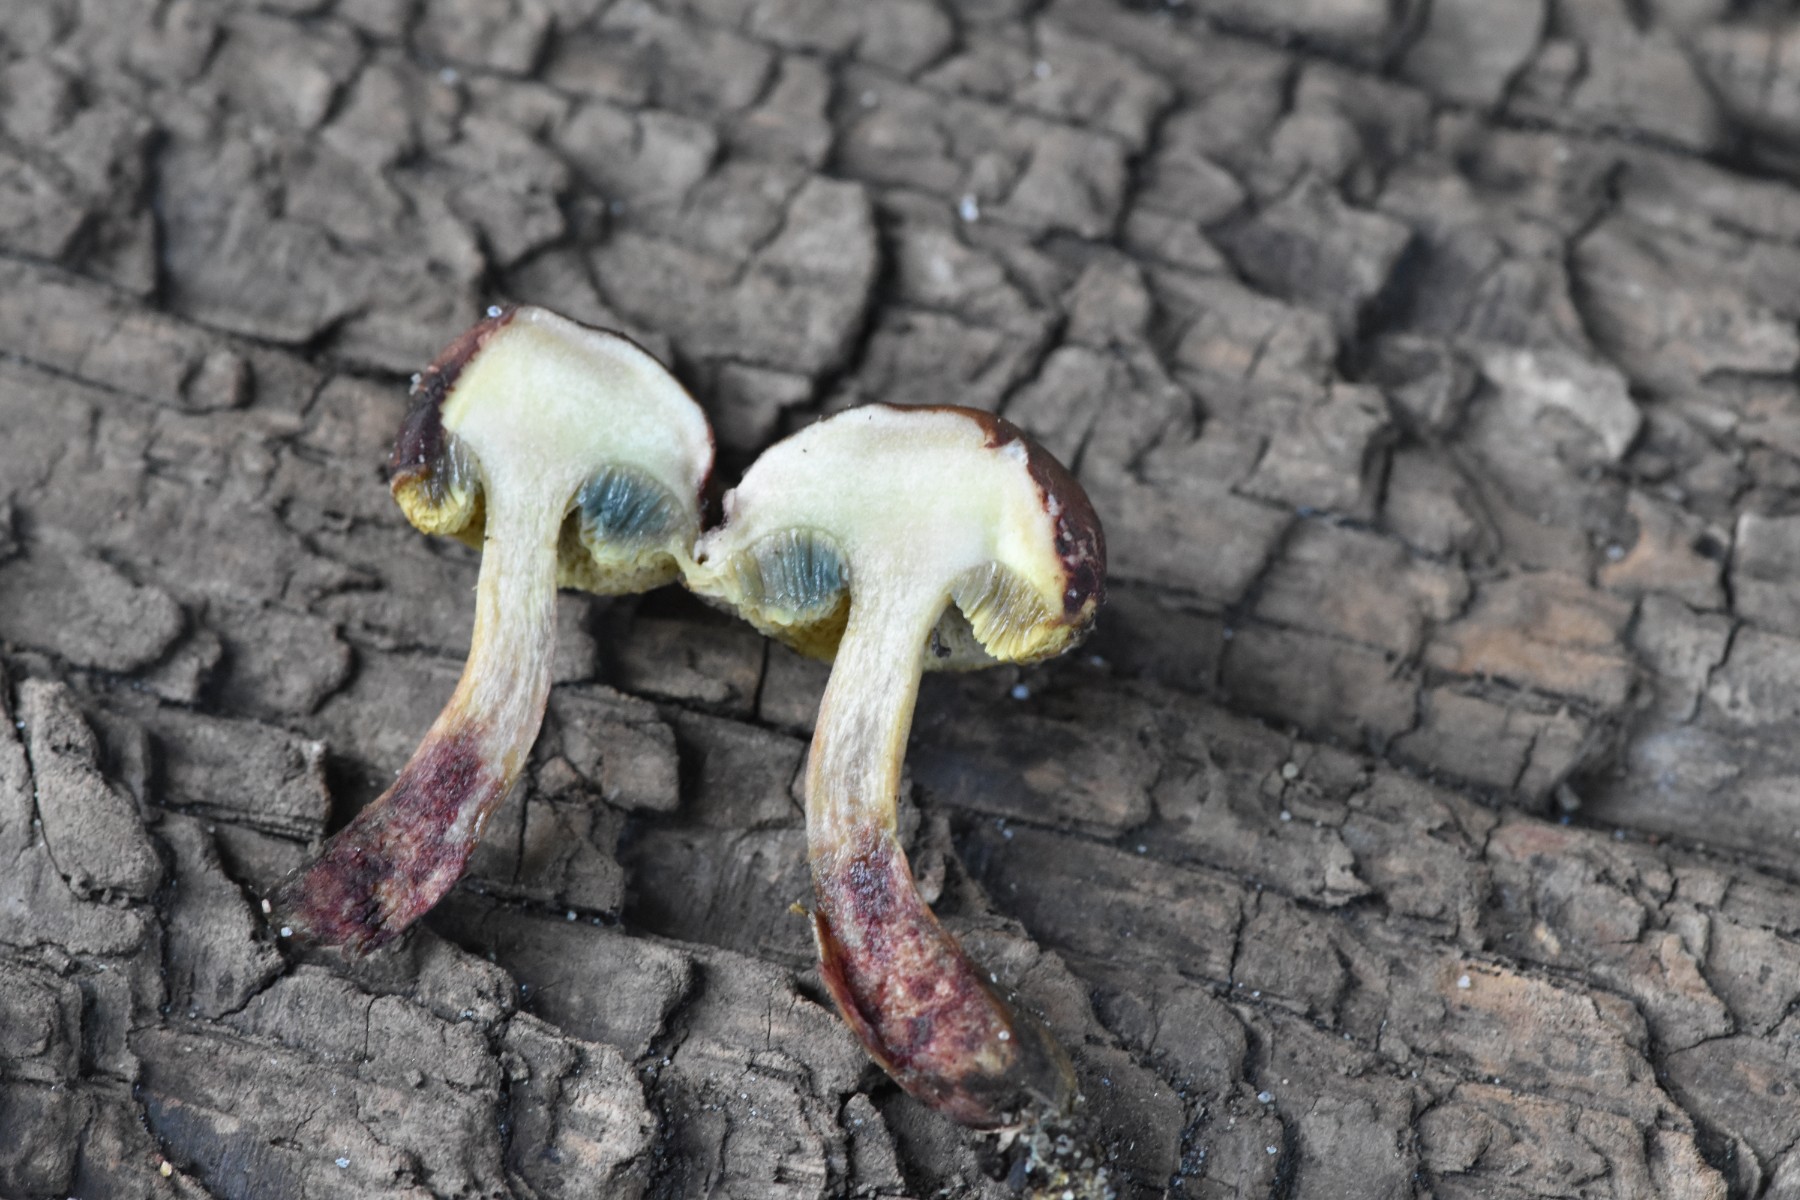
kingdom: Fungi
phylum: Basidiomycota
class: Agaricomycetes
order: Boletales
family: Boletaceae
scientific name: Boletaceae
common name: rørhatfamilien
